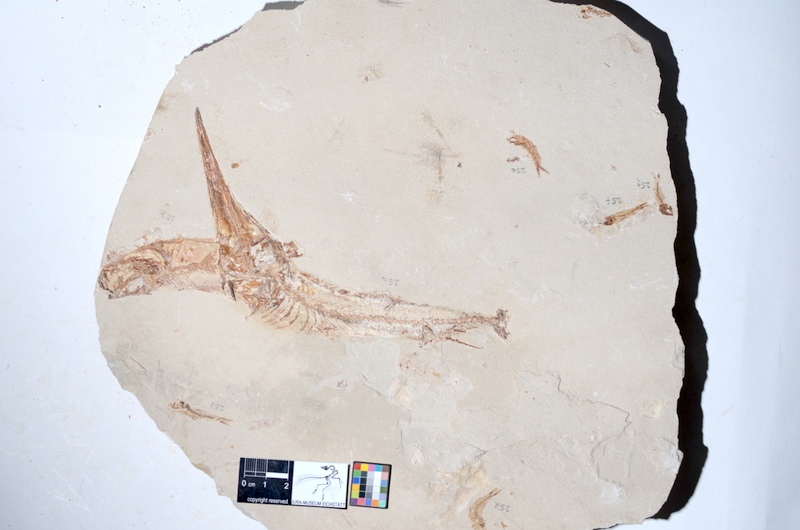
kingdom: Animalia
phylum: Chordata
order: Aulopiformes
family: Apateopholidae
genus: Apateopholis
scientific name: Apateopholis Rhinellus laniatus
